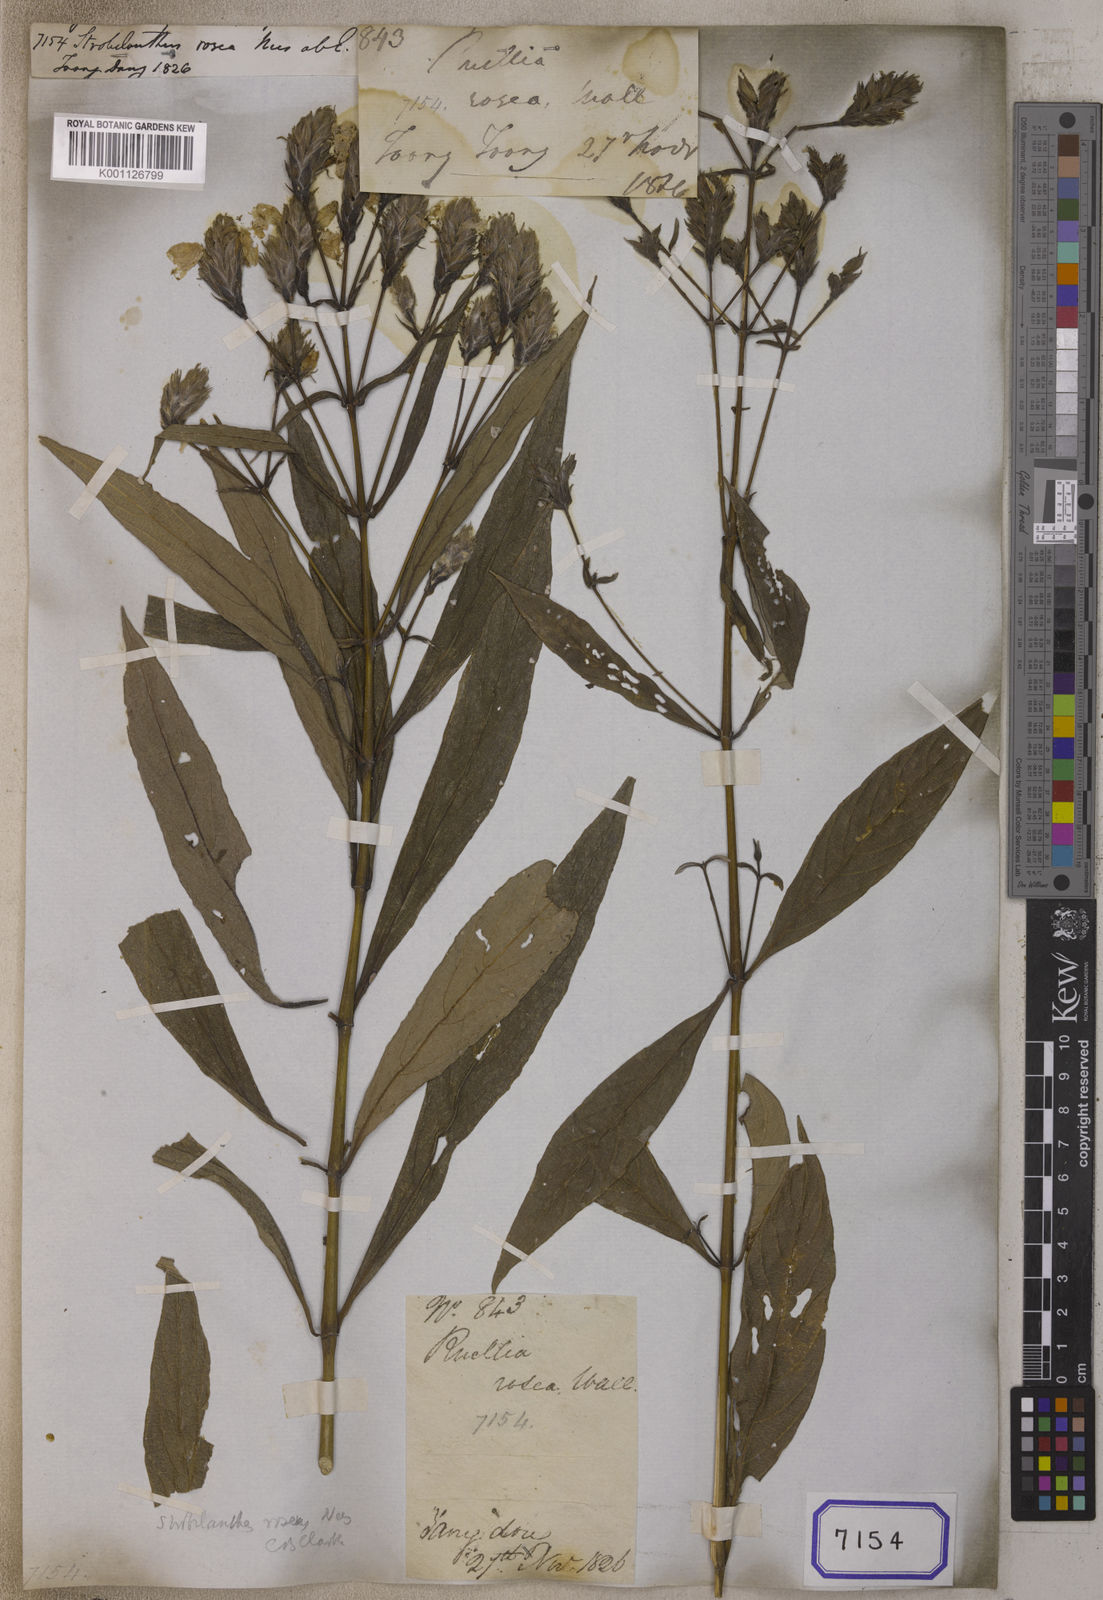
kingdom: Plantae
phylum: Tracheophyta
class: Magnoliopsida
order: Lamiales
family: Acanthaceae
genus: Strobilanthes
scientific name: Strobilanthes
